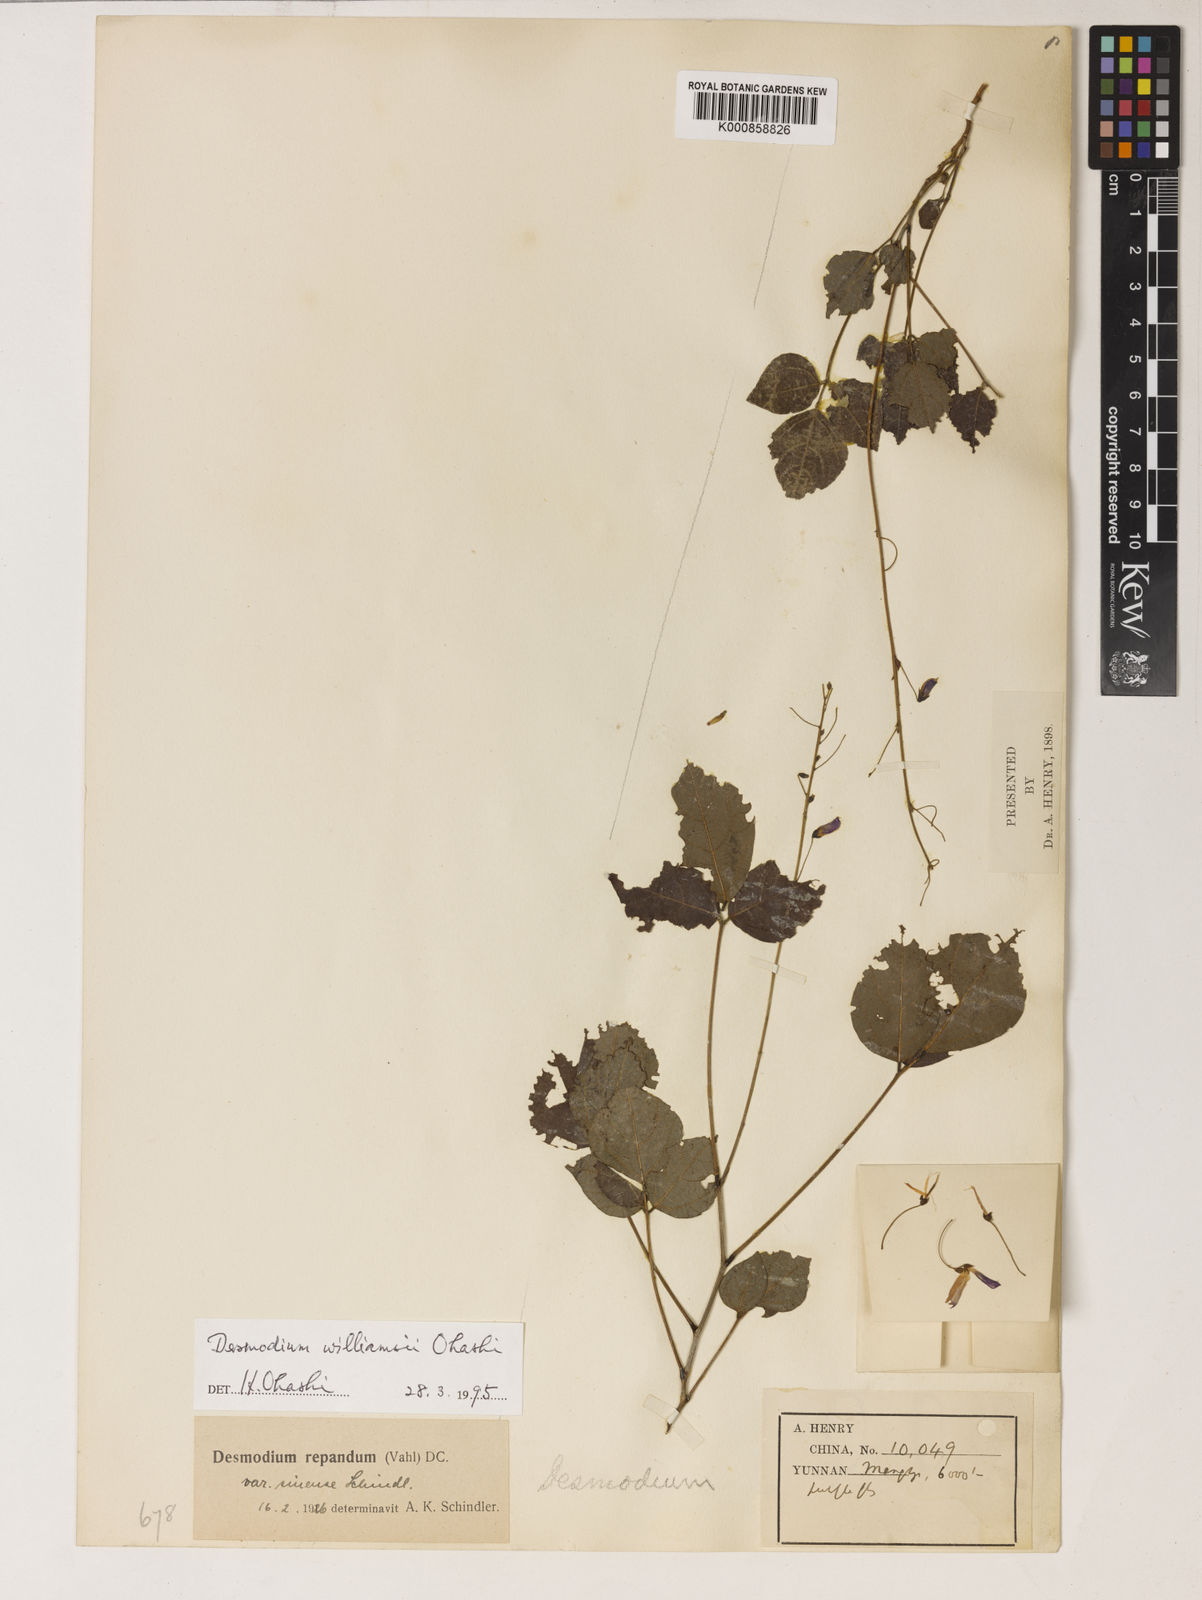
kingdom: Plantae
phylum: Tracheophyta
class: Magnoliopsida
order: Fabales
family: Fabaceae
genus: Hylodesmum
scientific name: Hylodesmum williamsii
